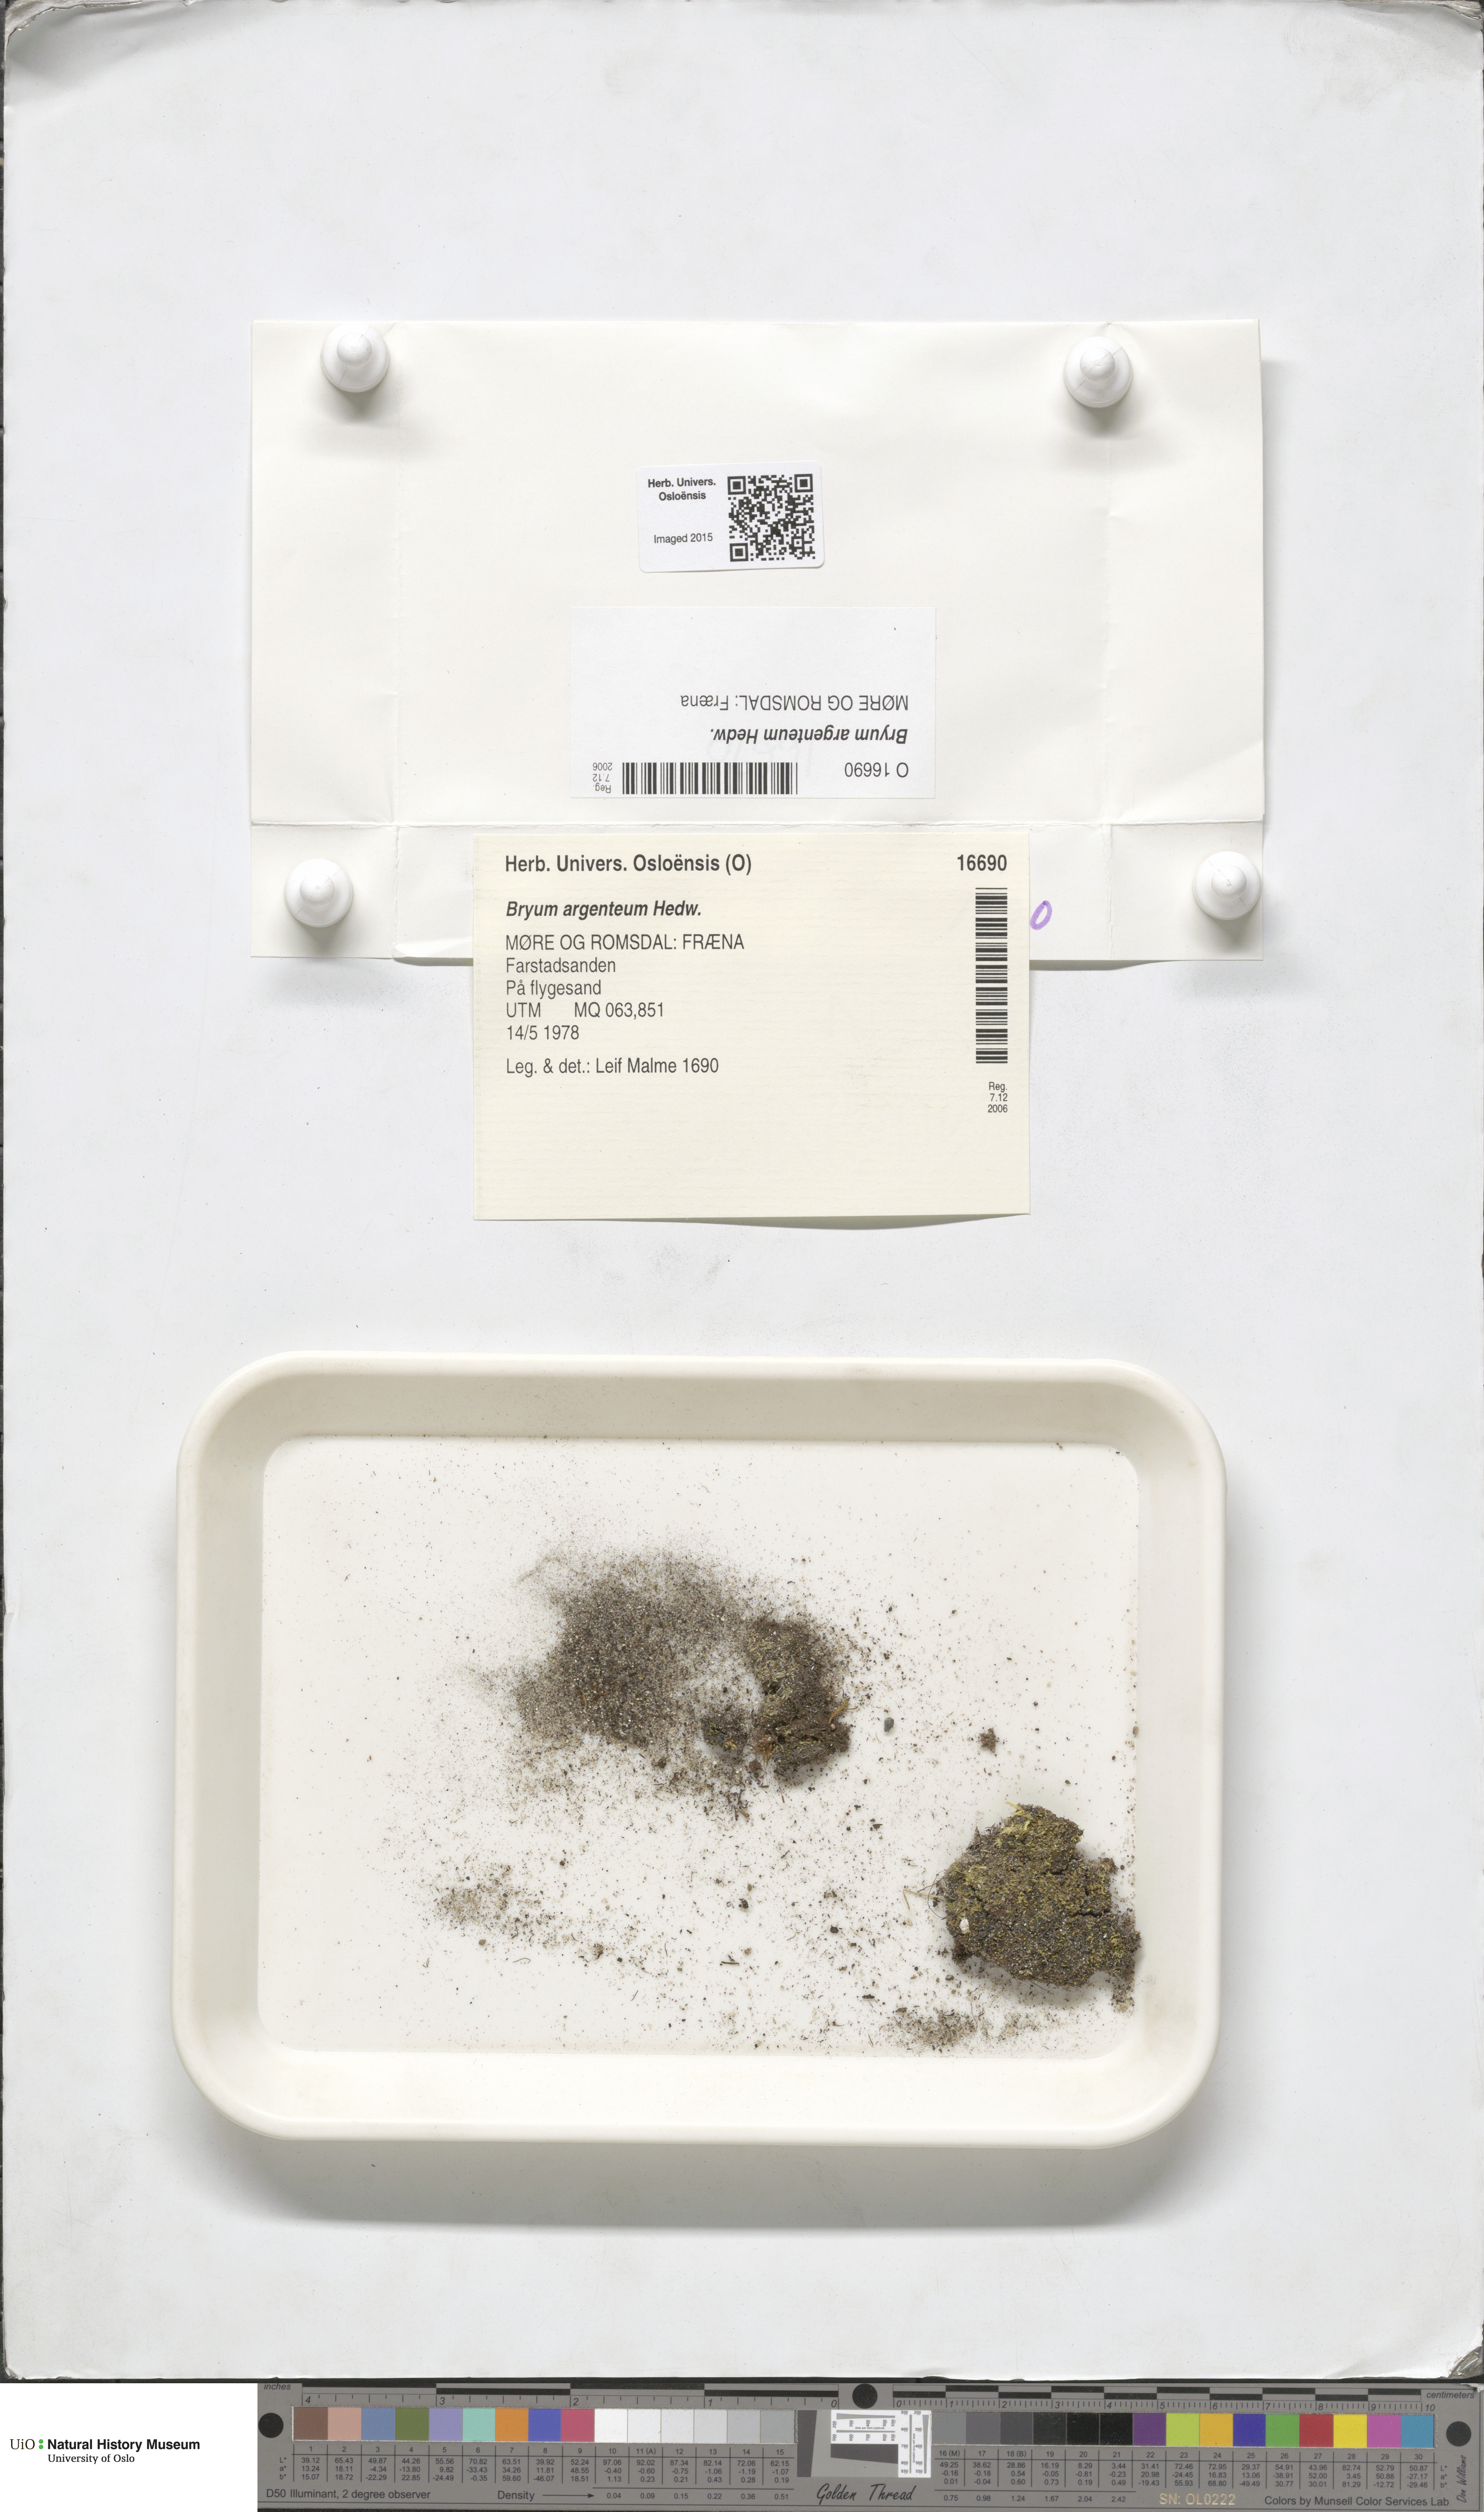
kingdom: Plantae
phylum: Bryophyta
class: Bryopsida
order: Bryales
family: Bryaceae
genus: Bryum
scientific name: Bryum argenteum
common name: Silver-moss
